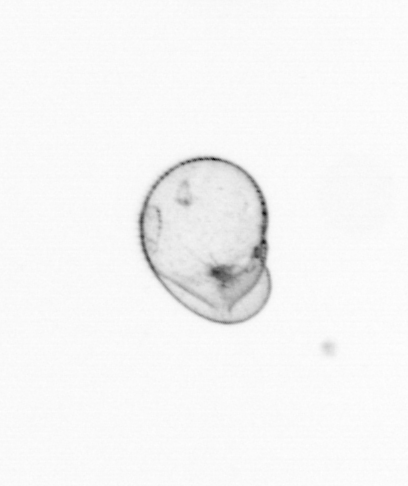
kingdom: Chromista
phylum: Myzozoa
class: Dinophyceae
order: Noctilucales
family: Noctilucaceae
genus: Noctiluca
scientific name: Noctiluca scintillans
